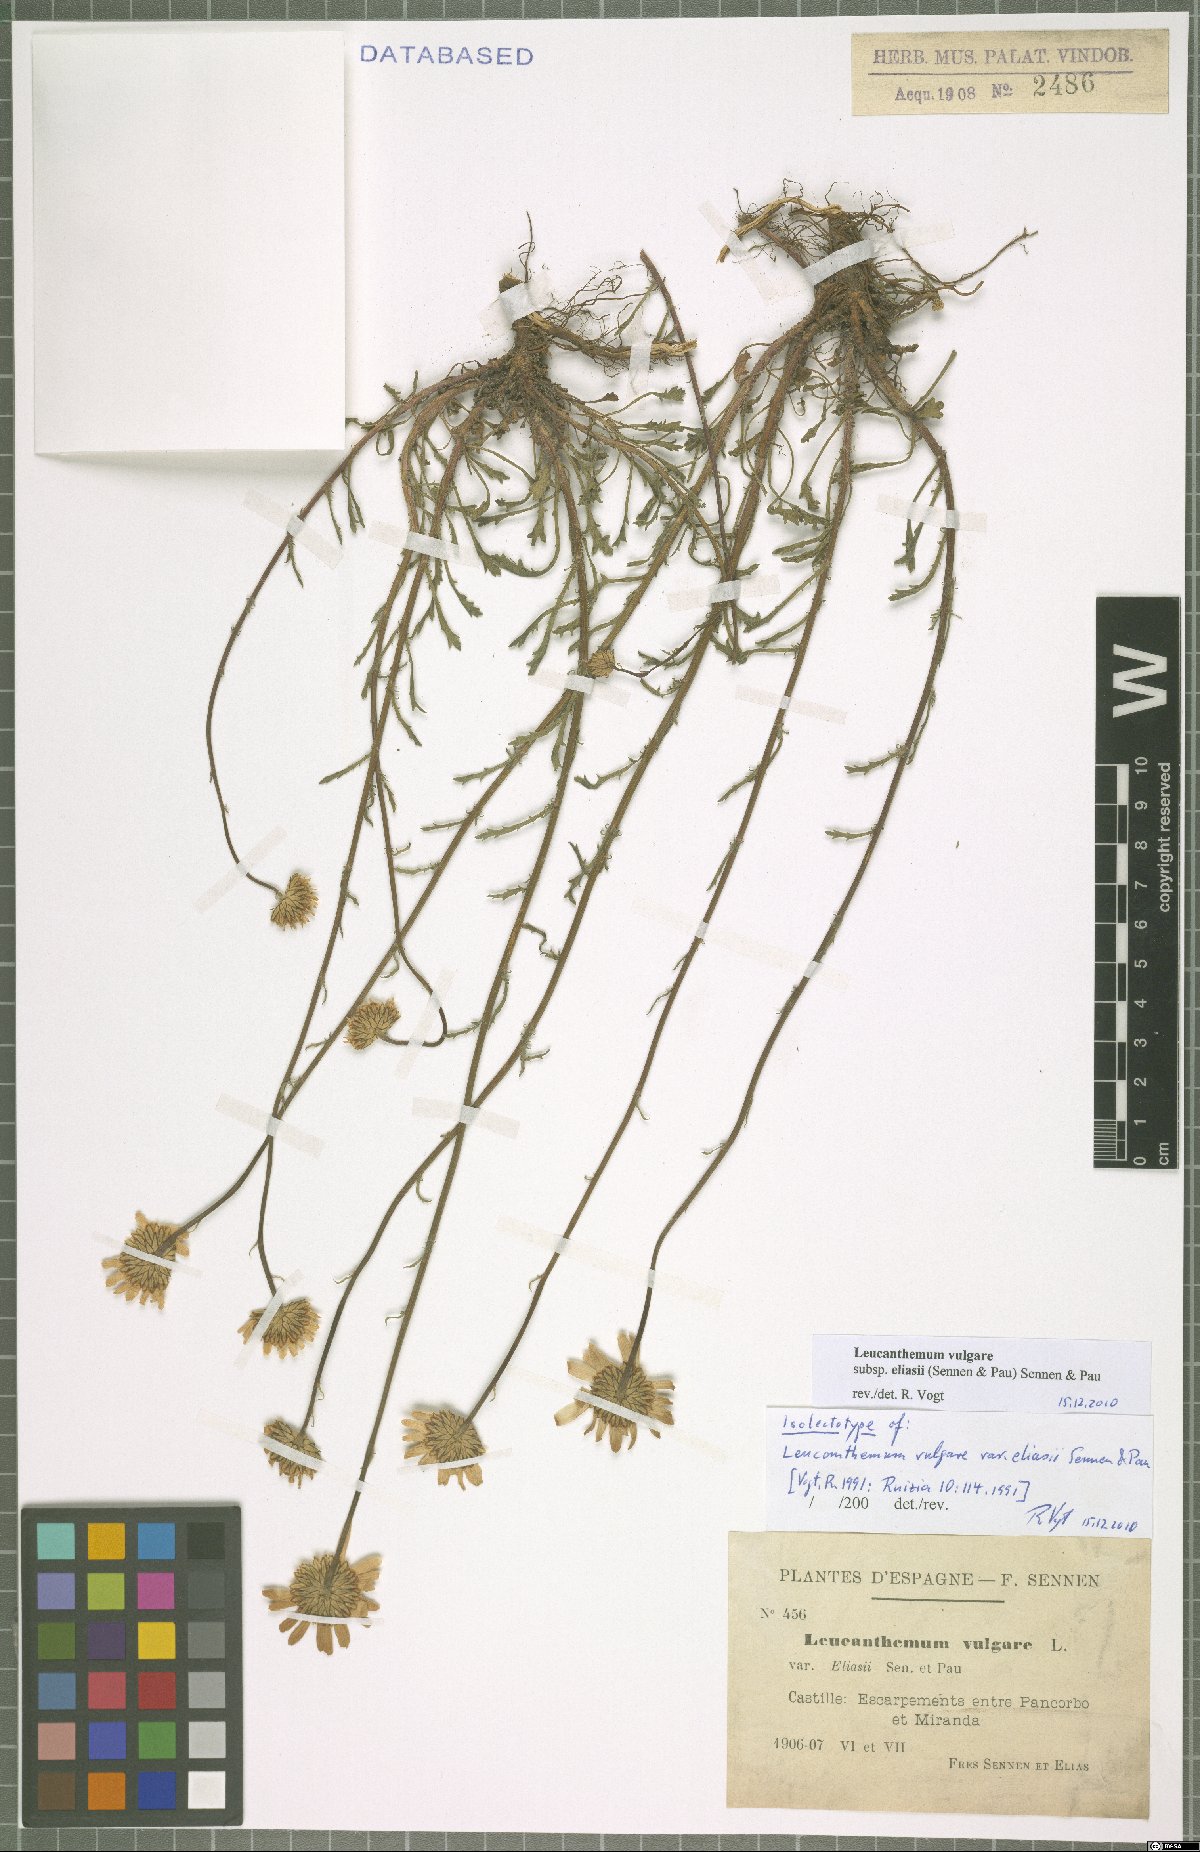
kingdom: Plantae
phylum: Tracheophyta
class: Magnoliopsida
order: Asterales
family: Asteraceae
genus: Leucanthemum
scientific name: Leucanthemum eliasii
